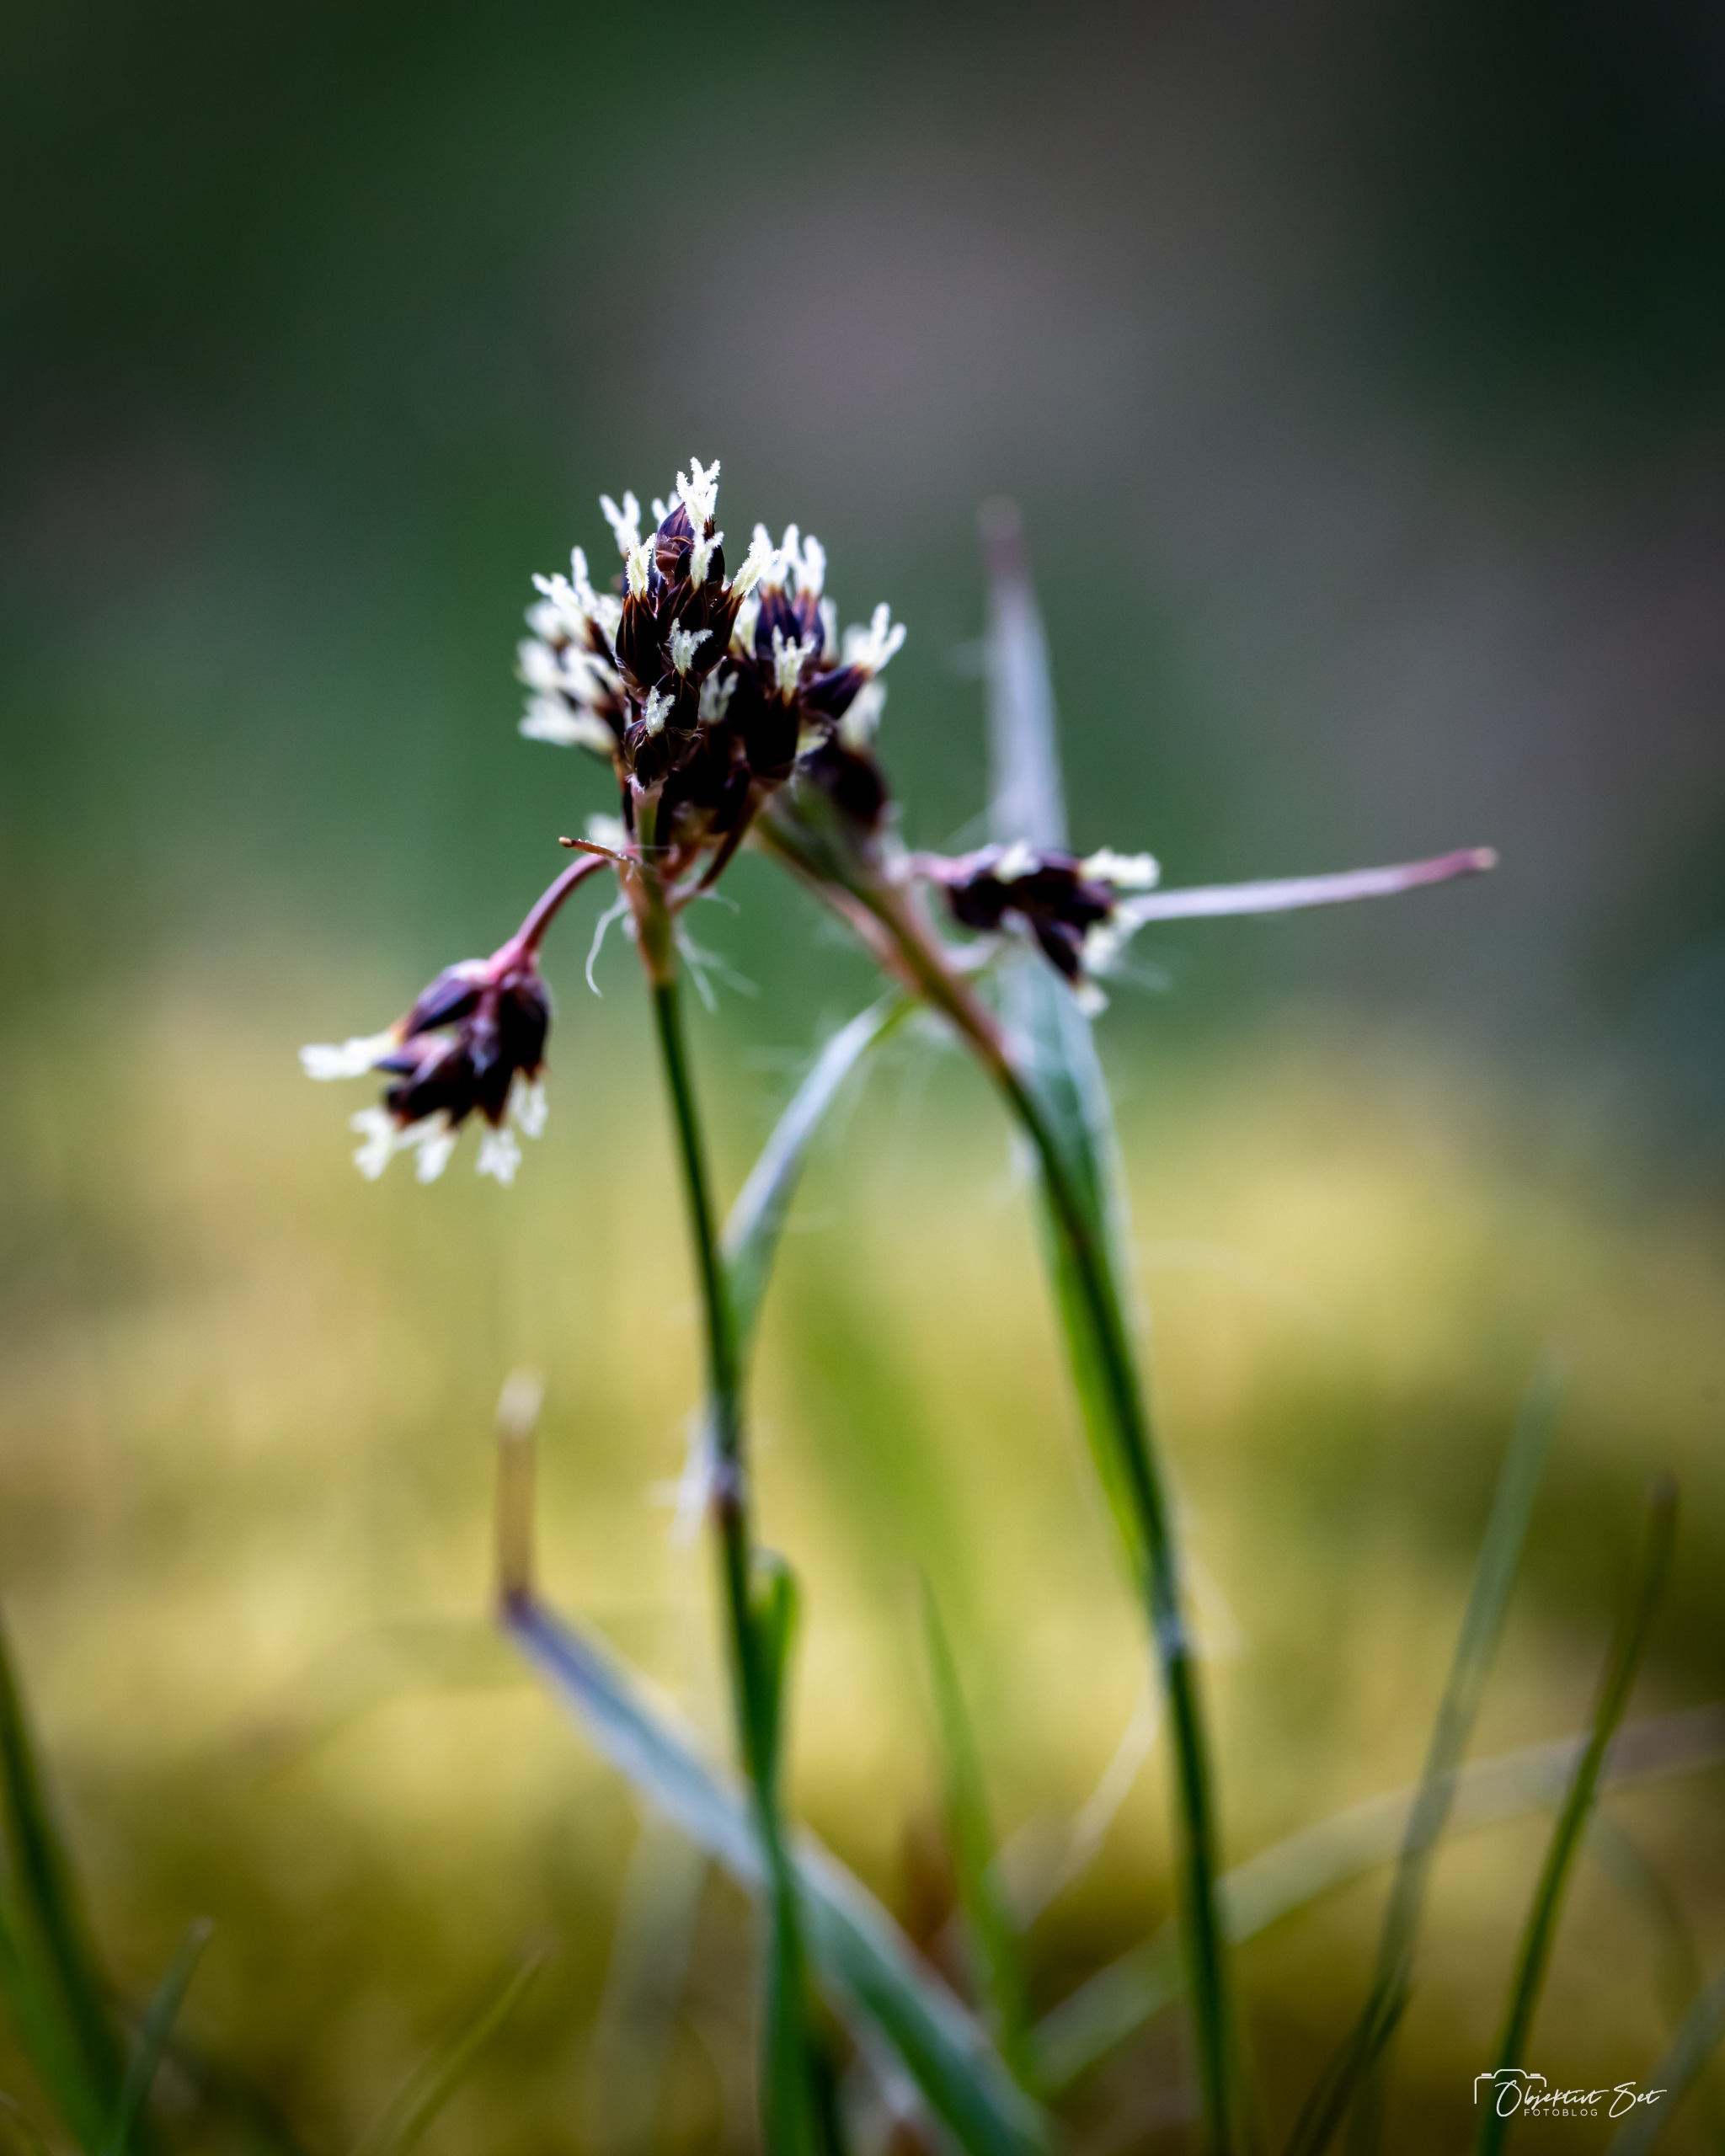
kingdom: Plantae
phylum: Tracheophyta
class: Liliopsida
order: Poales
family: Juncaceae
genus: Luzula
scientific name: Luzula campestris
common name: Mark-frytle
